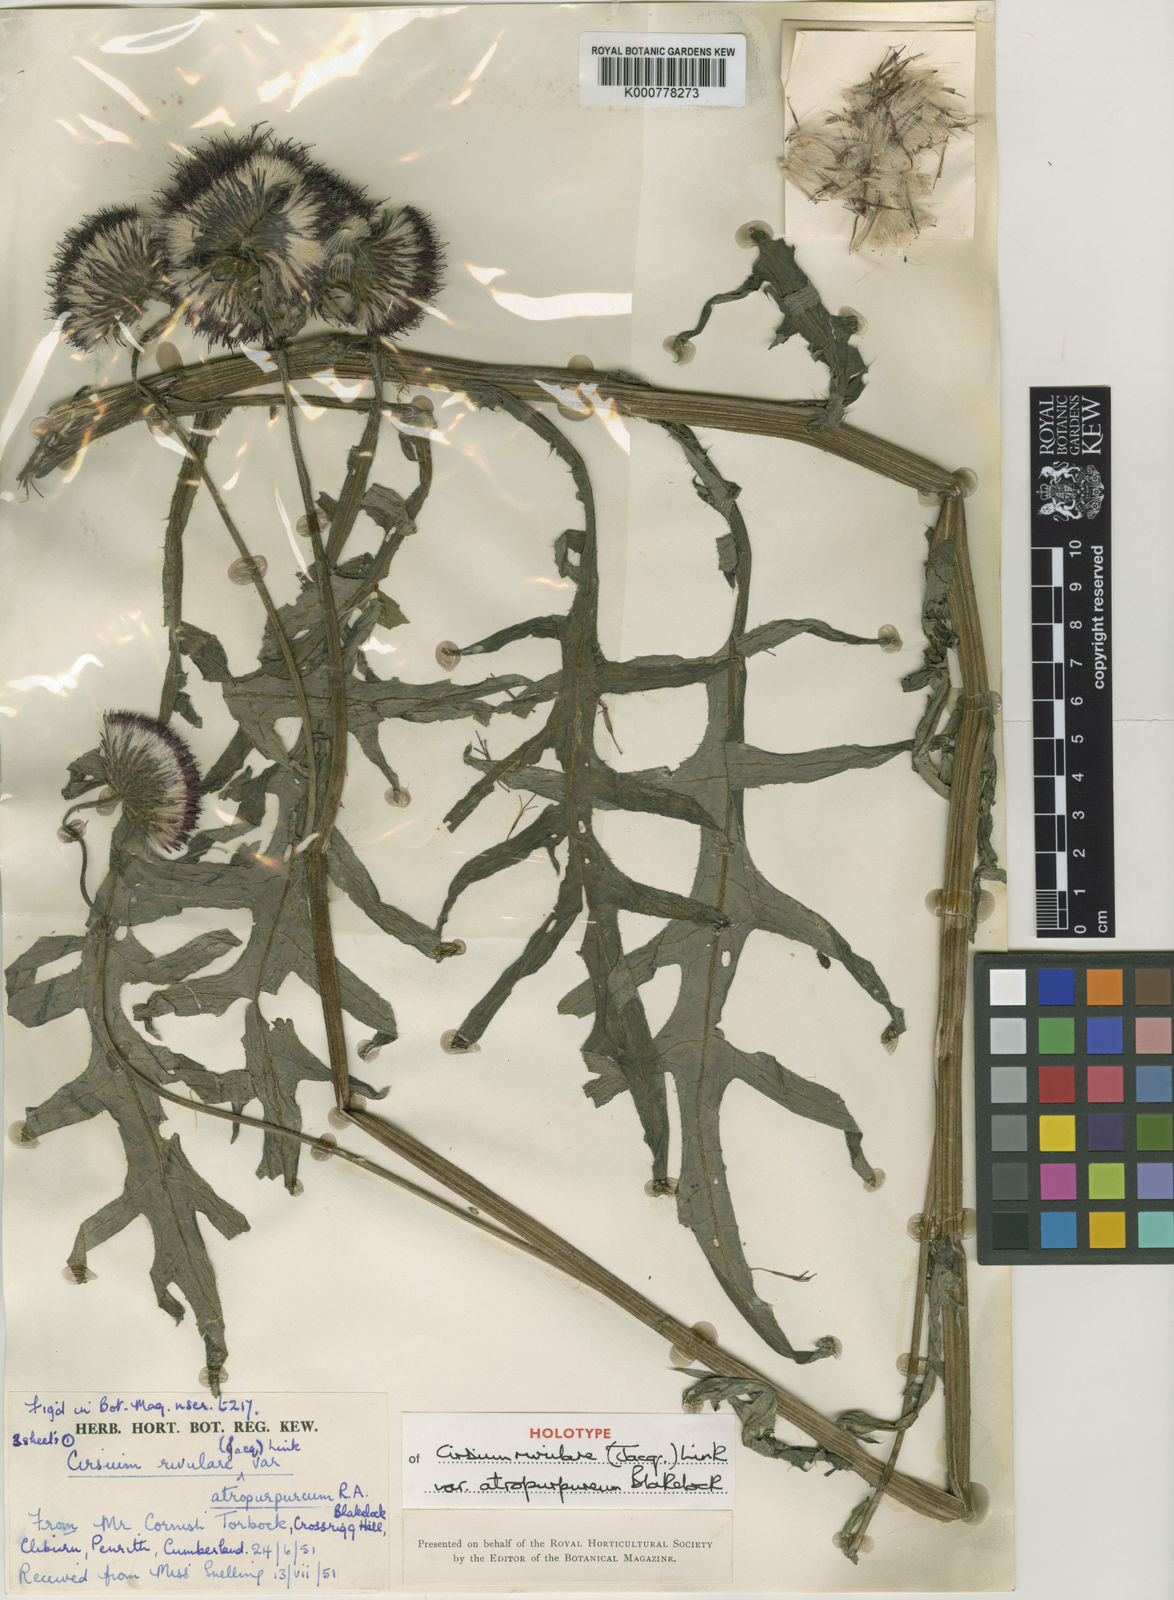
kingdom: Plantae
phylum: Tracheophyta
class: Magnoliopsida
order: Asterales
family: Asteraceae
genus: Cirsium
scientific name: Cirsium rivulare
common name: Brook thistle
